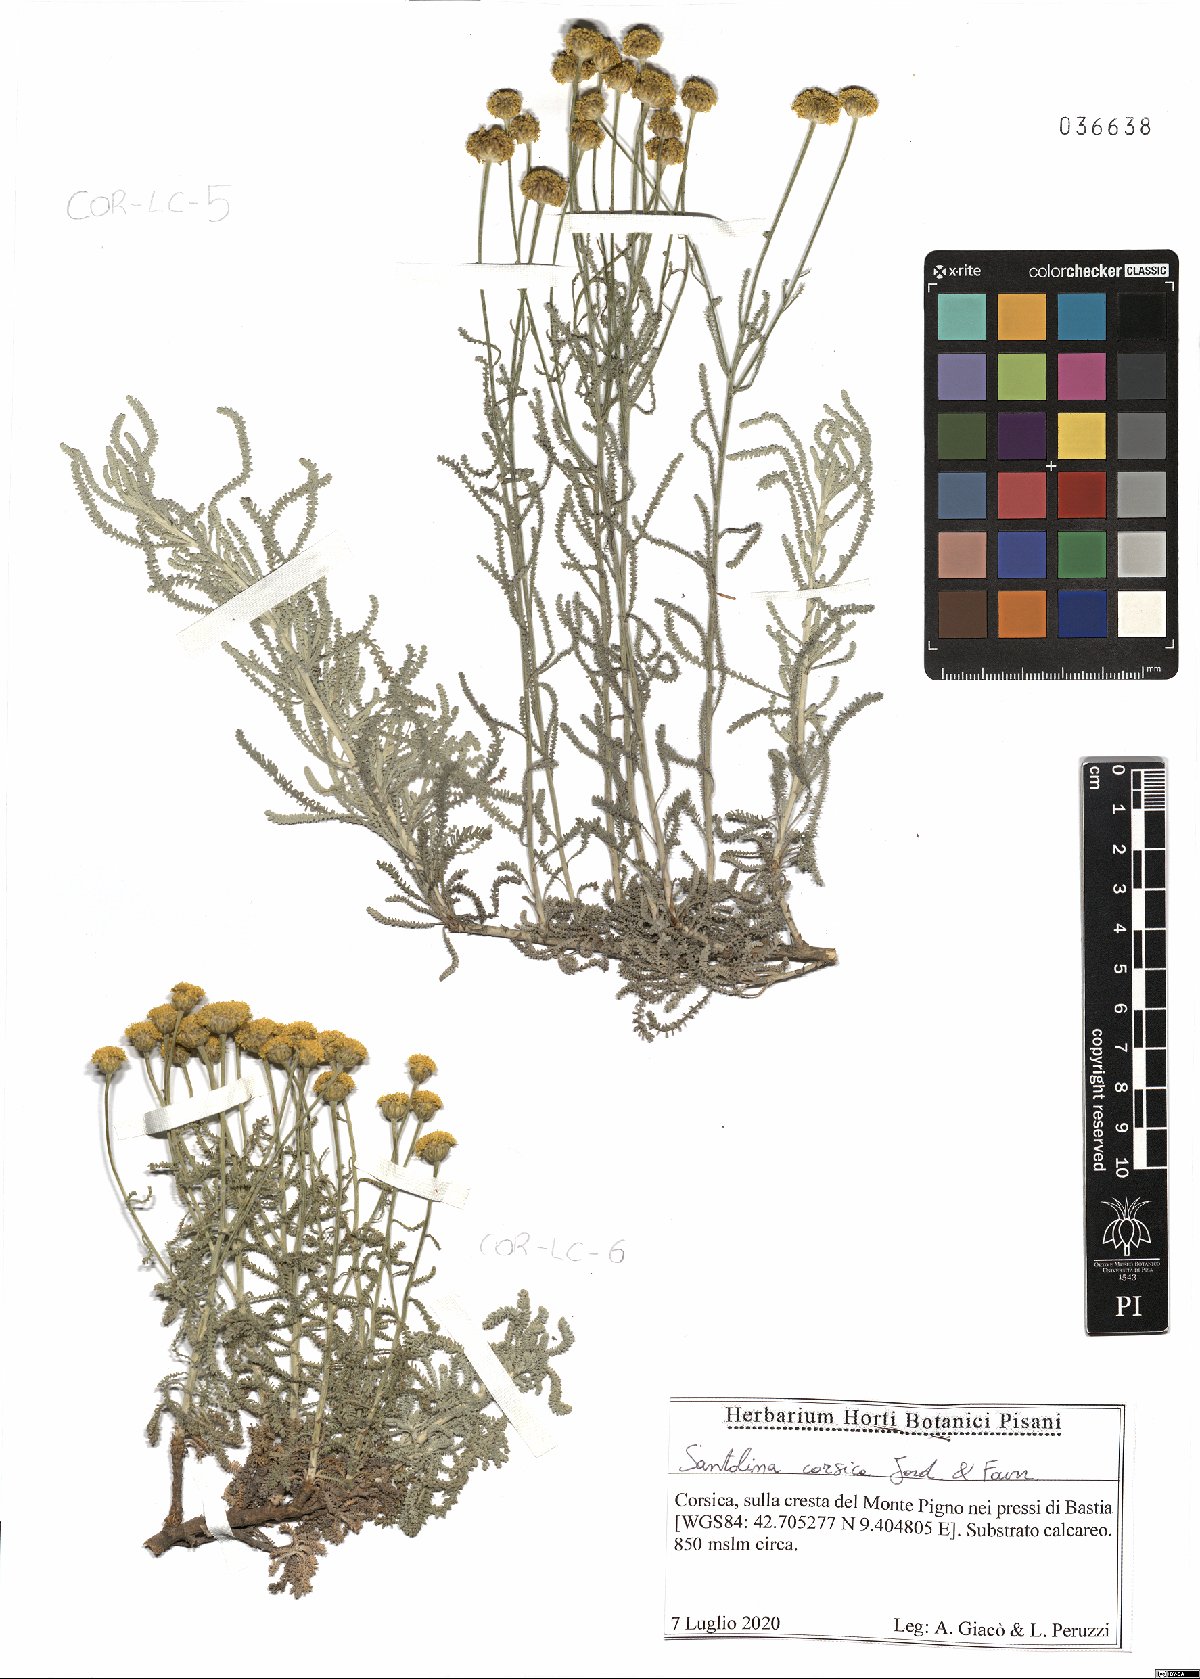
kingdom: Plantae
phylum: Tracheophyta
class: Magnoliopsida
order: Asterales
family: Asteraceae
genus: Santolina
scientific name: Santolina corsica
